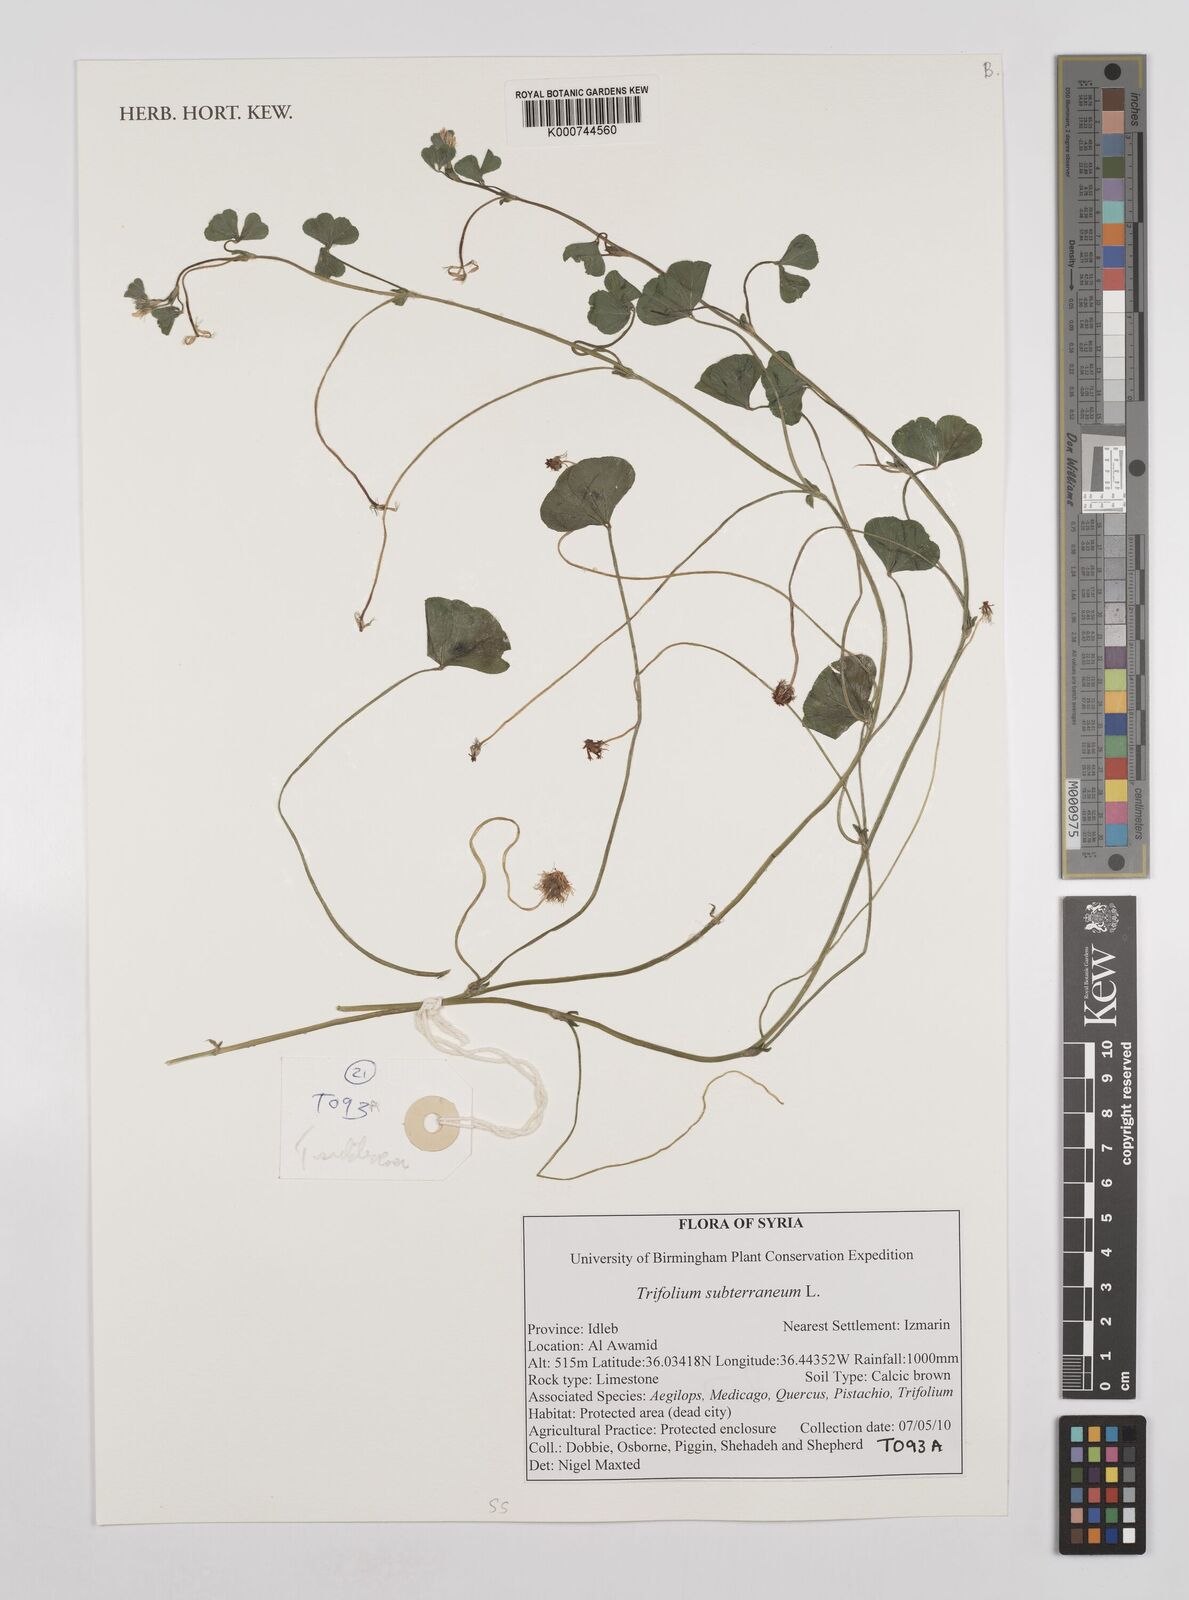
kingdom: Plantae
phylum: Tracheophyta
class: Magnoliopsida
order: Fabales
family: Fabaceae
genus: Trifolium
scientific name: Trifolium subterraneum
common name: Subterranean clover
